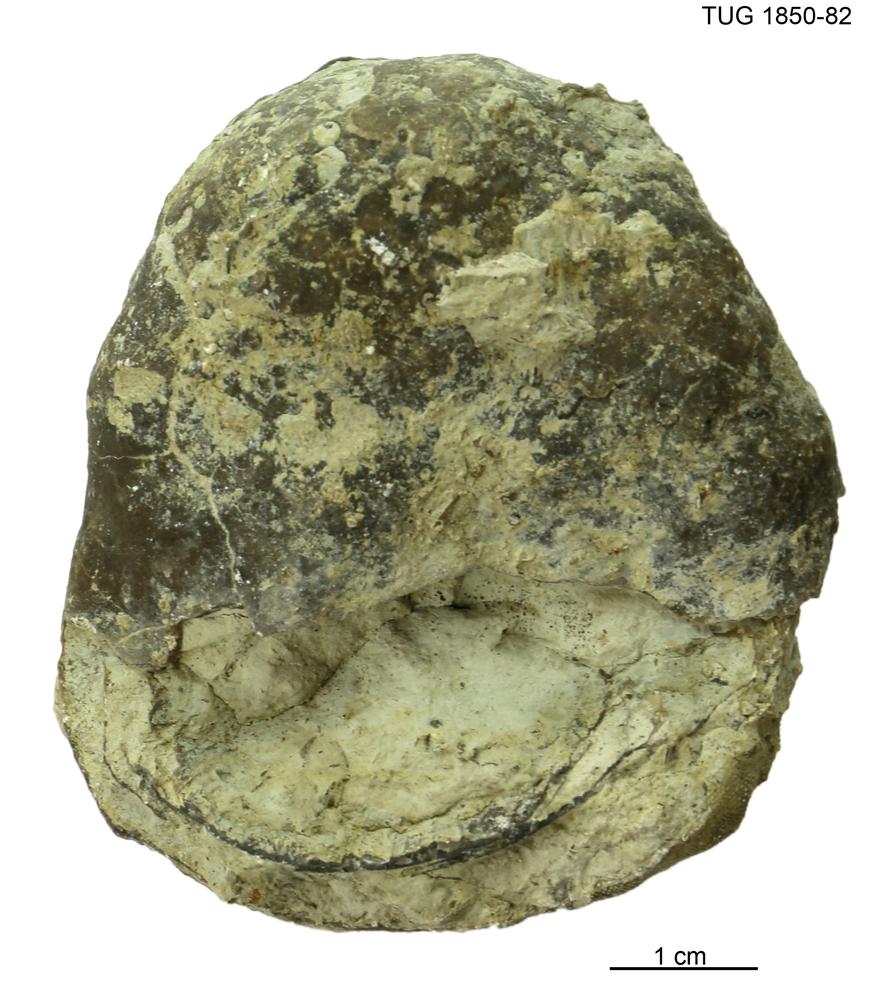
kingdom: Animalia
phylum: Porifera
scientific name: Porifera
